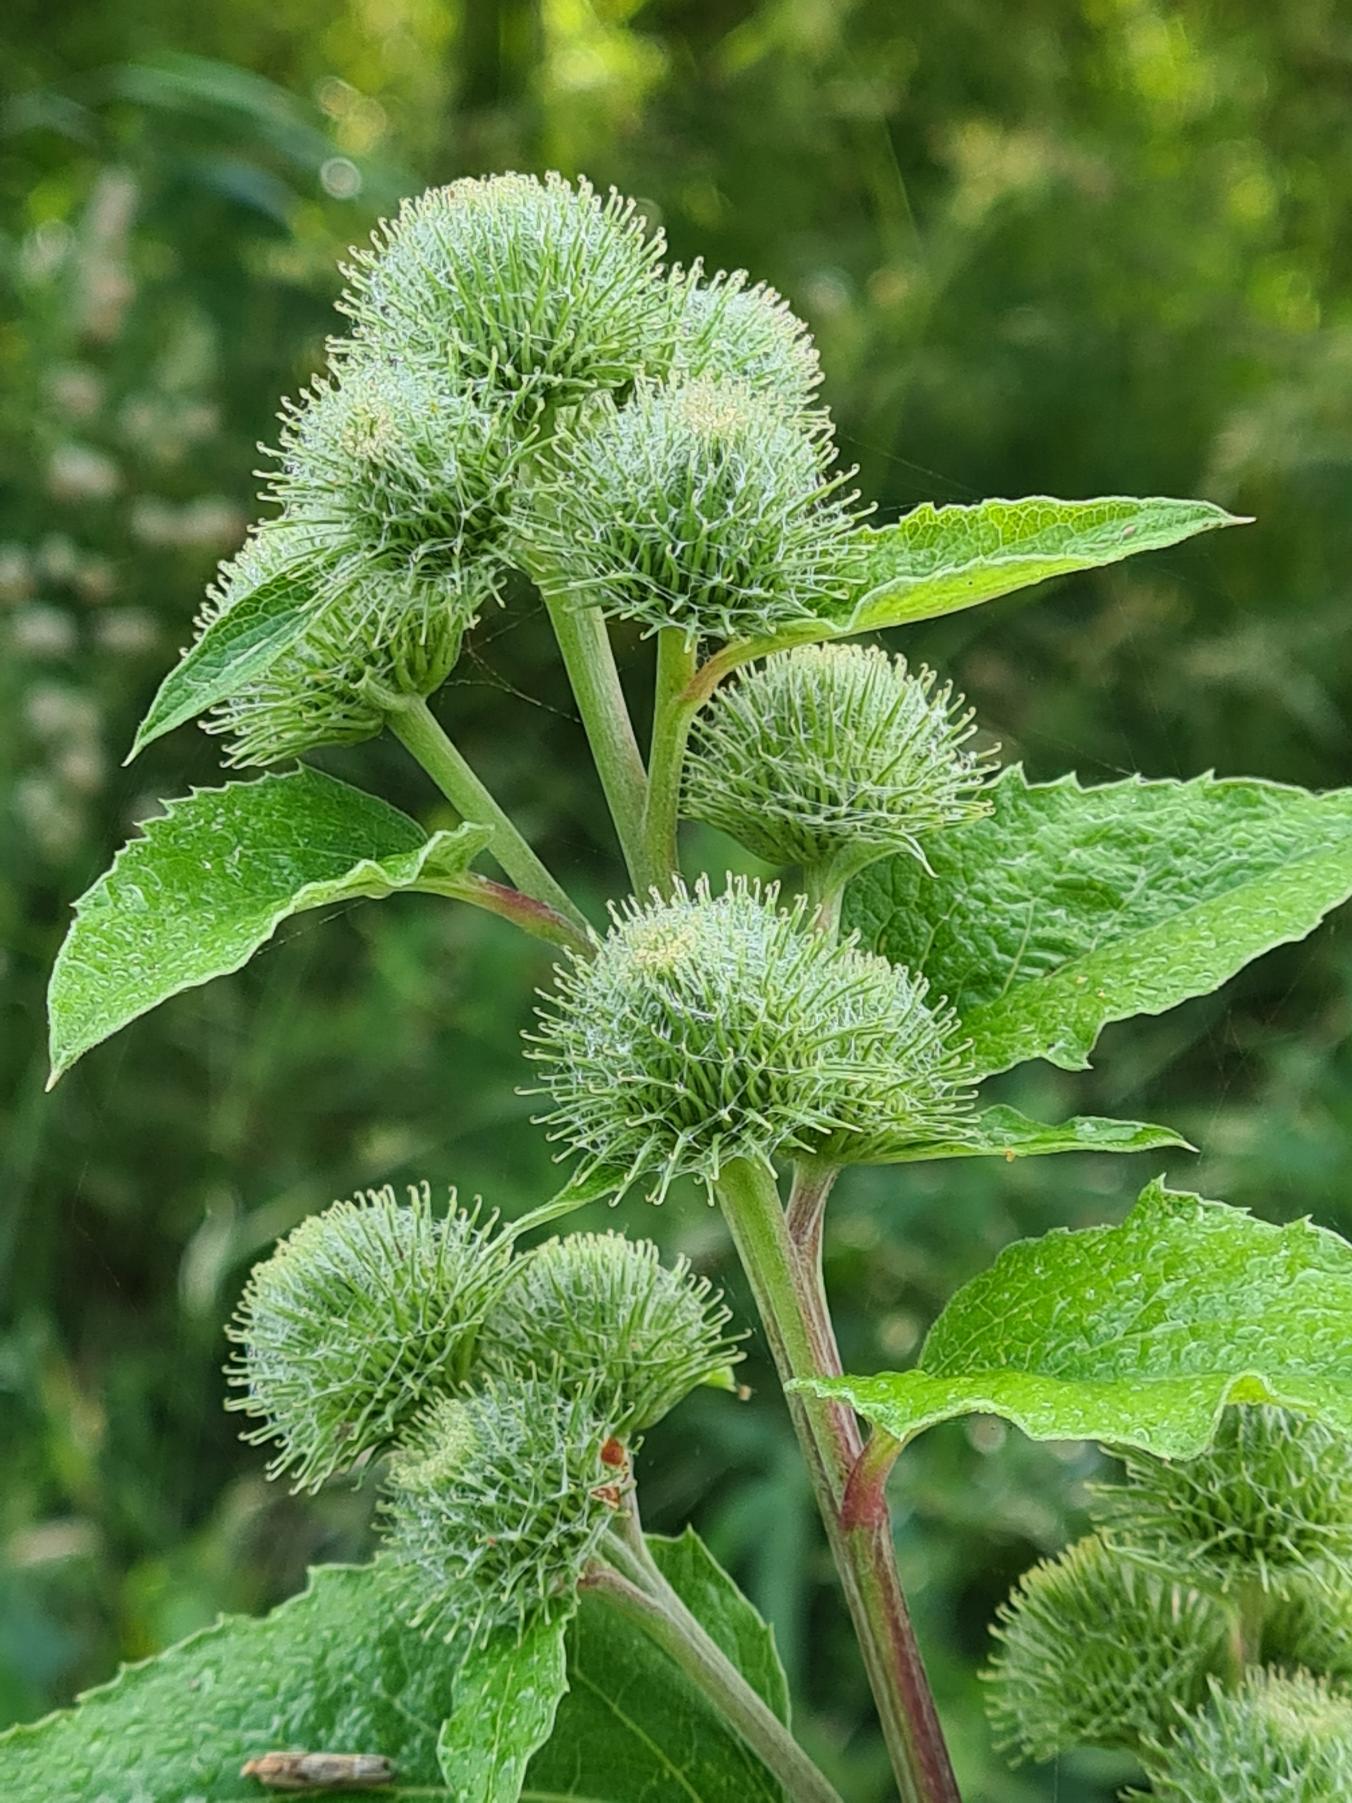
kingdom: Plantae
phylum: Tracheophyta
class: Magnoliopsida
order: Asterales
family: Asteraceae
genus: Arctium
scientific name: Arctium nemorosum
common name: Skov-burre
